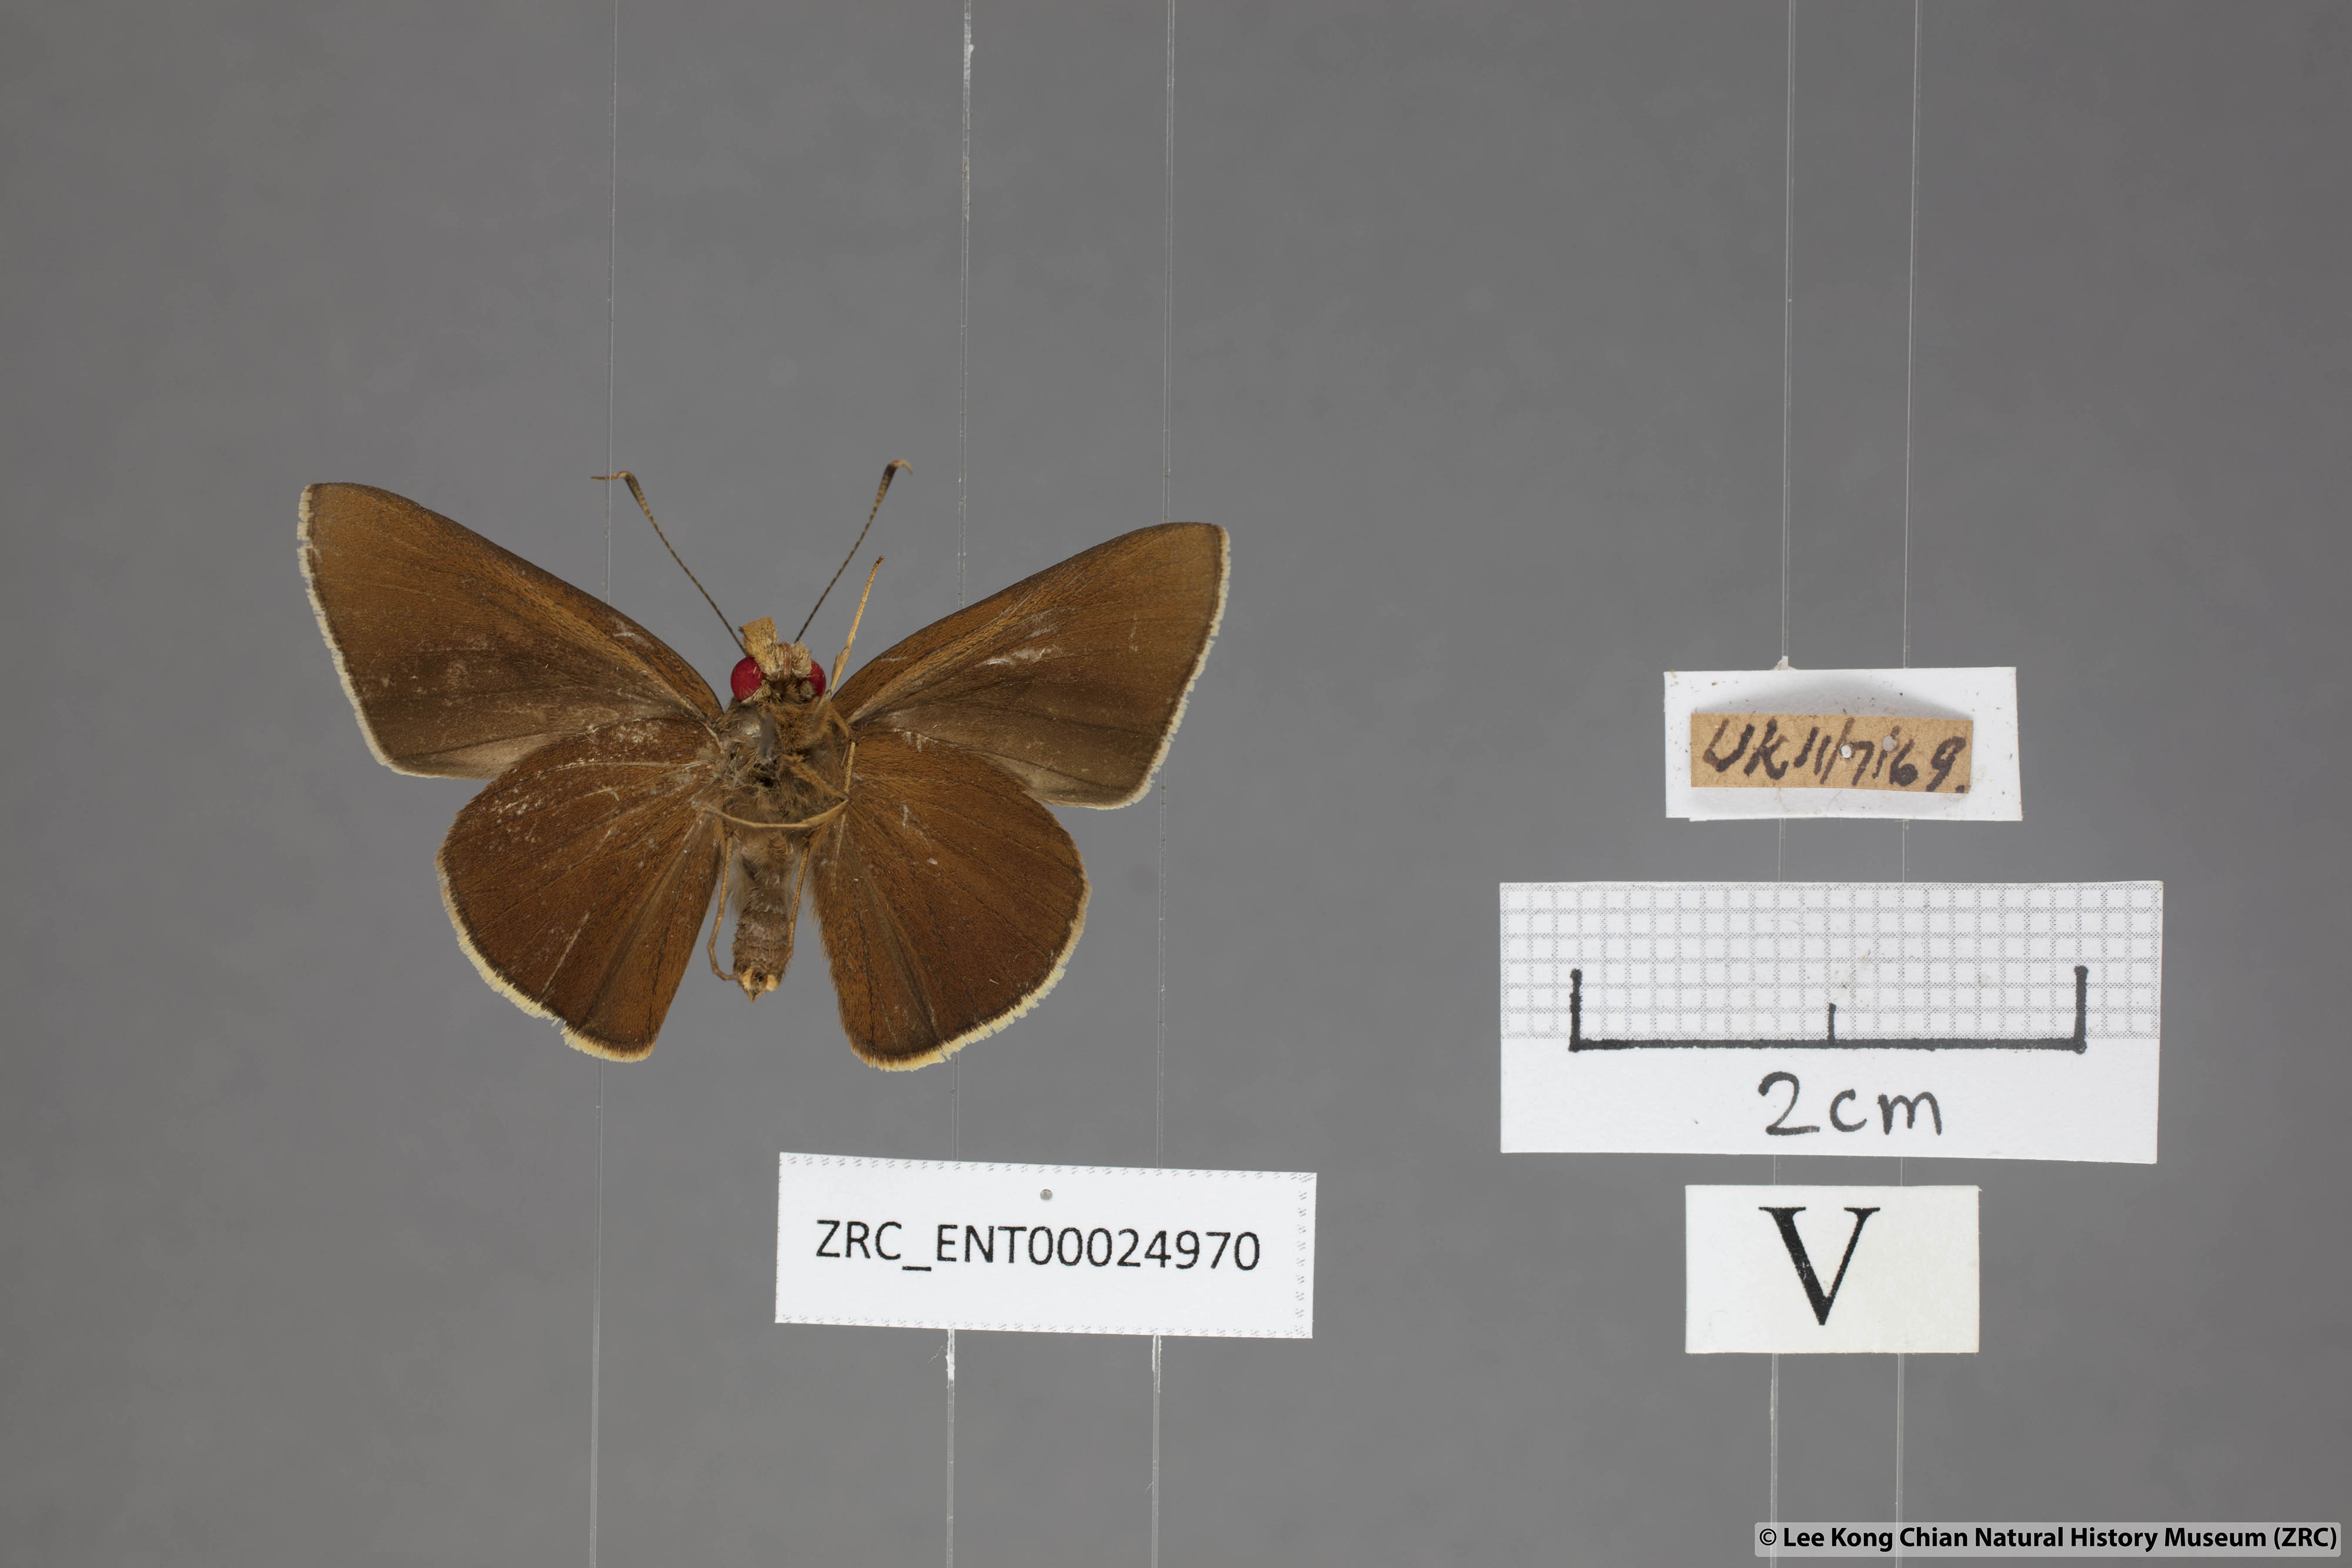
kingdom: Animalia
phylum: Arthropoda
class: Insecta
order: Lepidoptera
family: Hesperiidae
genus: Matapa
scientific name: Matapa aria
